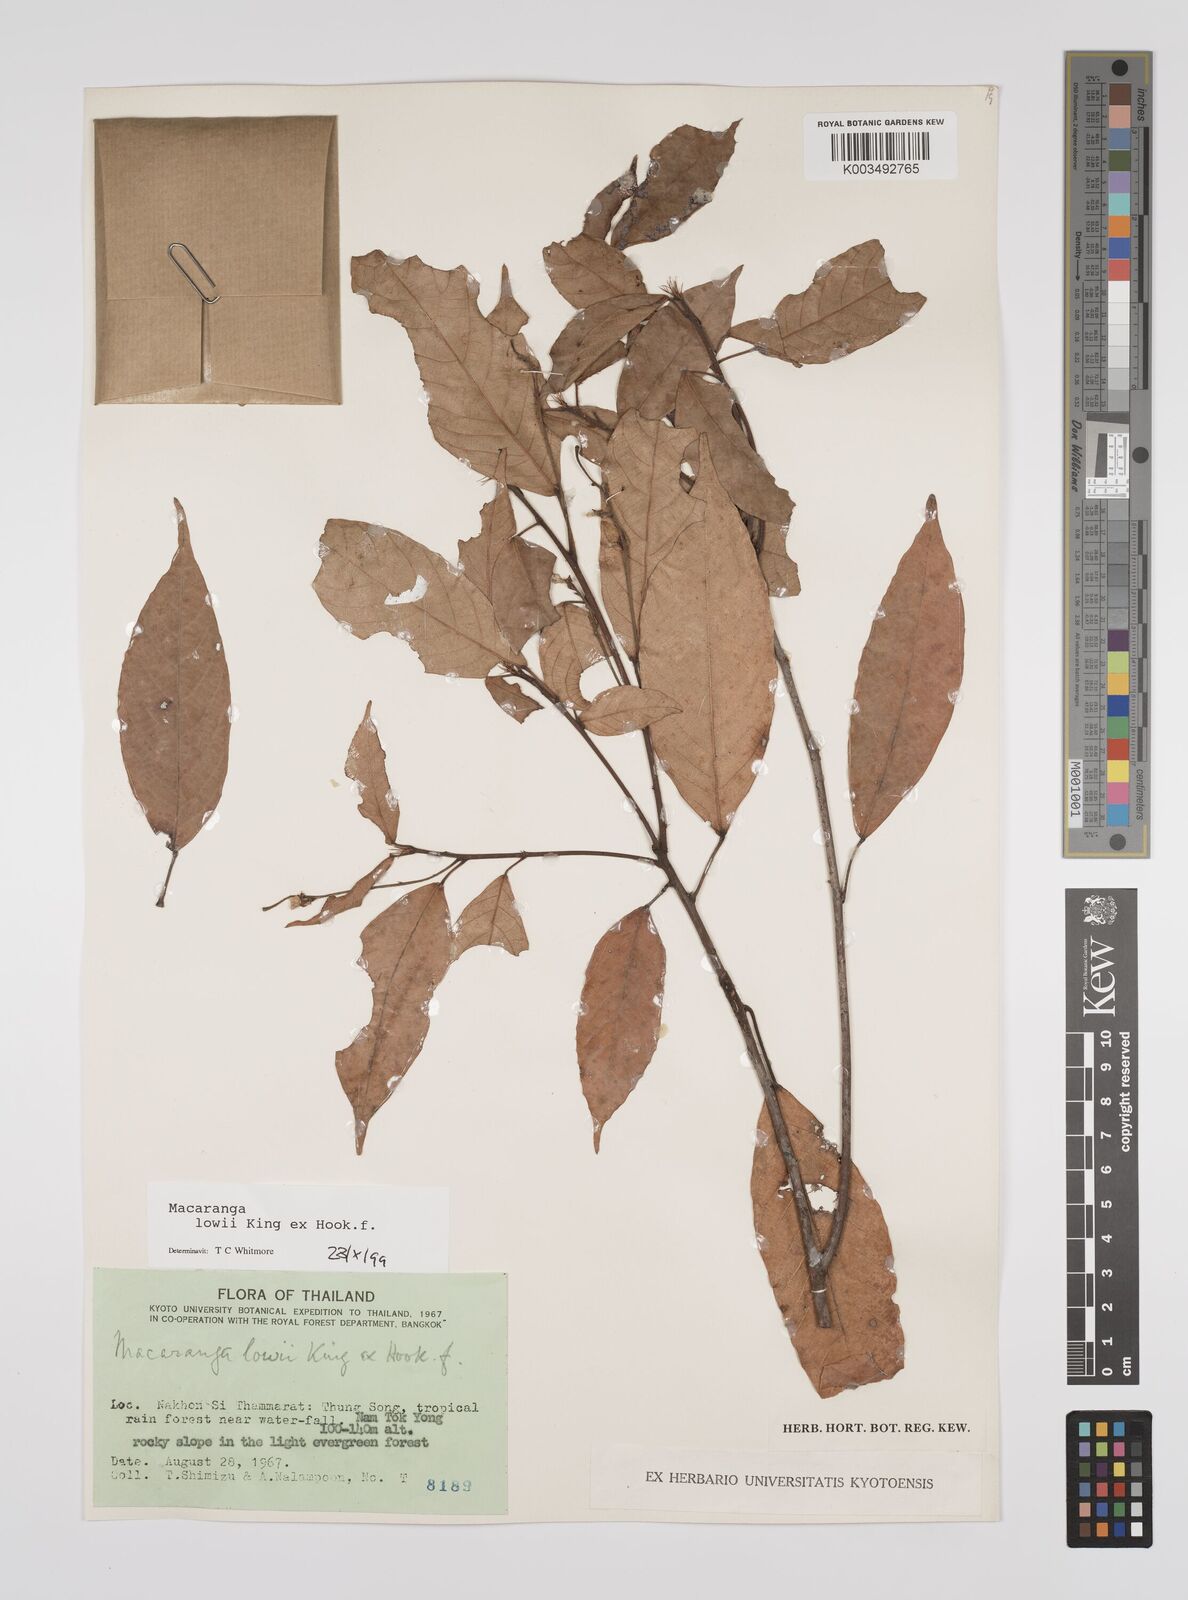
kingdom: Plantae
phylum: Tracheophyta
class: Magnoliopsida
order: Malpighiales
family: Euphorbiaceae
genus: Macaranga
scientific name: Macaranga lowii
